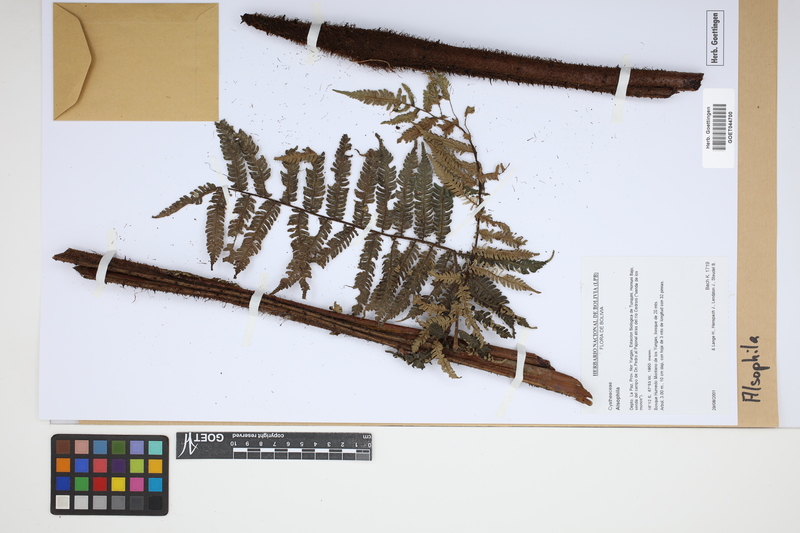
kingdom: Plantae
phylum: Tracheophyta
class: Polypodiopsida
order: Cyatheales
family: Cyatheaceae
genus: Alsophila
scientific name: Alsophila
